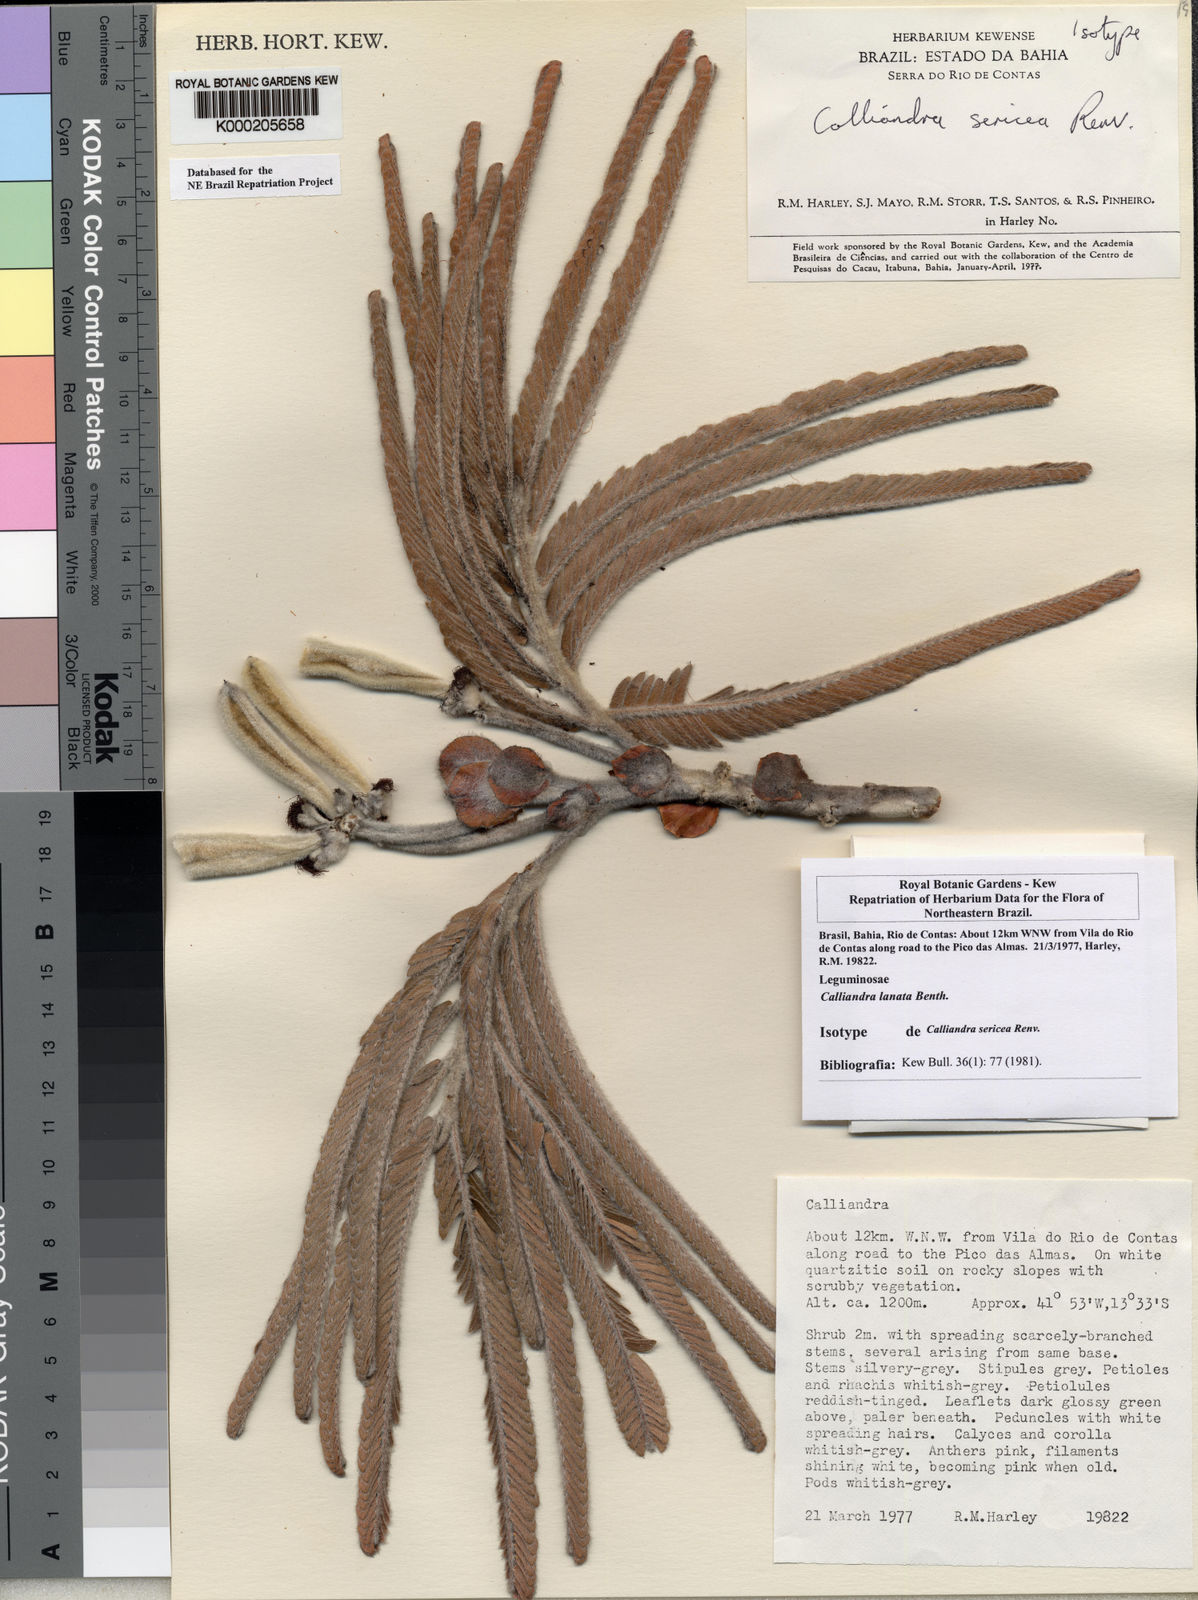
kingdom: Plantae
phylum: Tracheophyta
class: Magnoliopsida
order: Fabales
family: Fabaceae
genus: Calliandra
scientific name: Calliandra lanata
